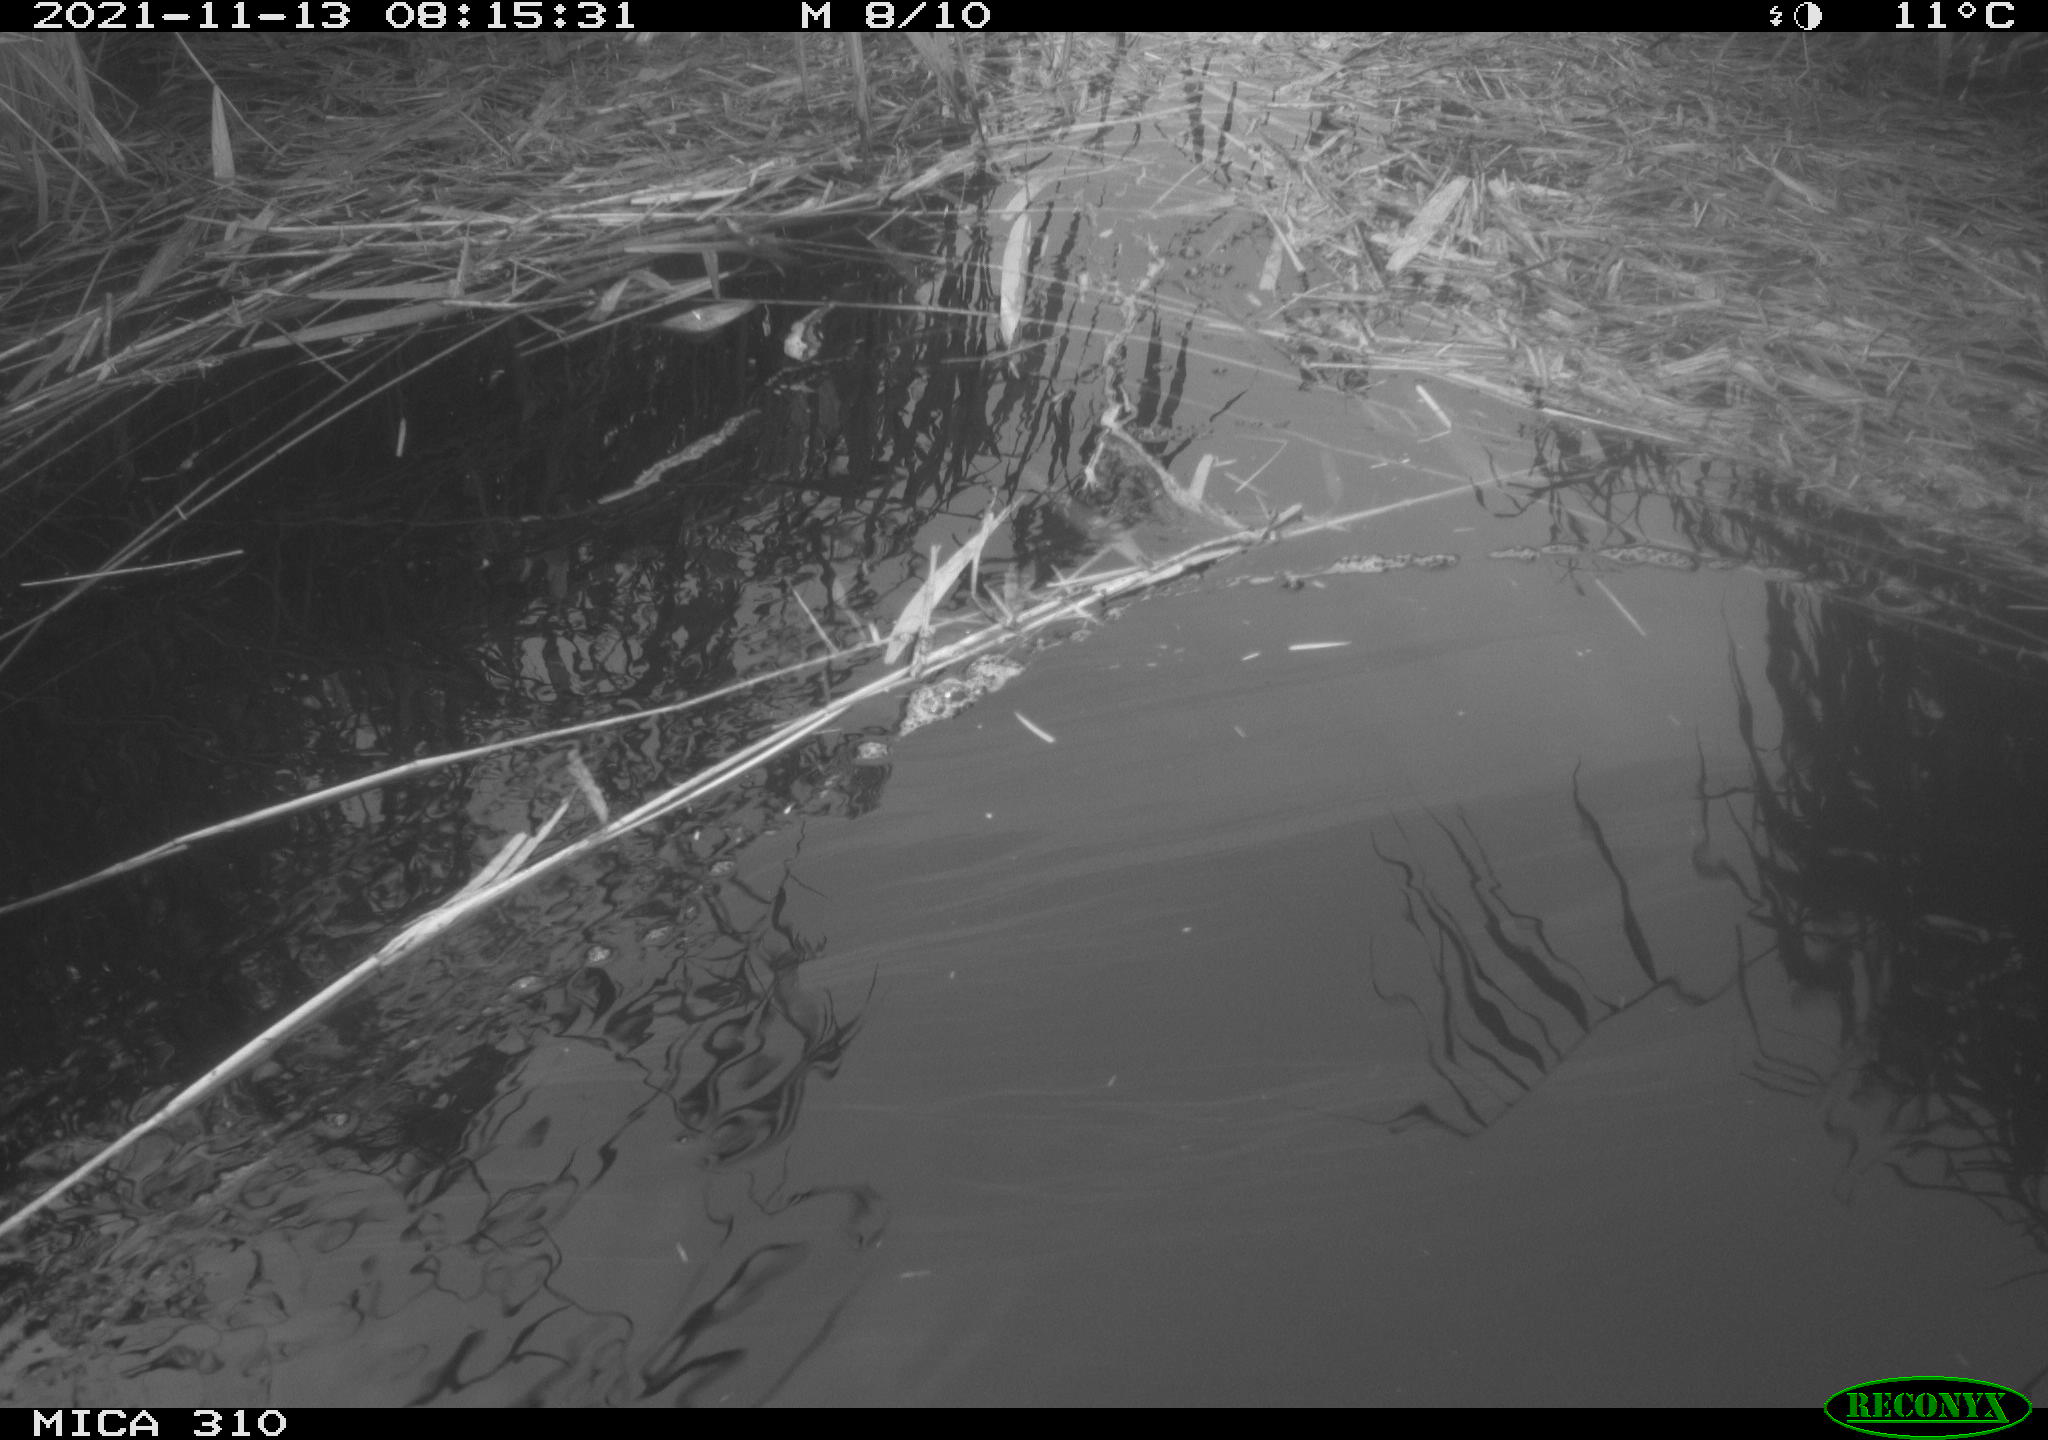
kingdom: Animalia
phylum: Chordata
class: Aves
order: Gruiformes
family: Rallidae
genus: Gallinula
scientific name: Gallinula chloropus
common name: Common moorhen
